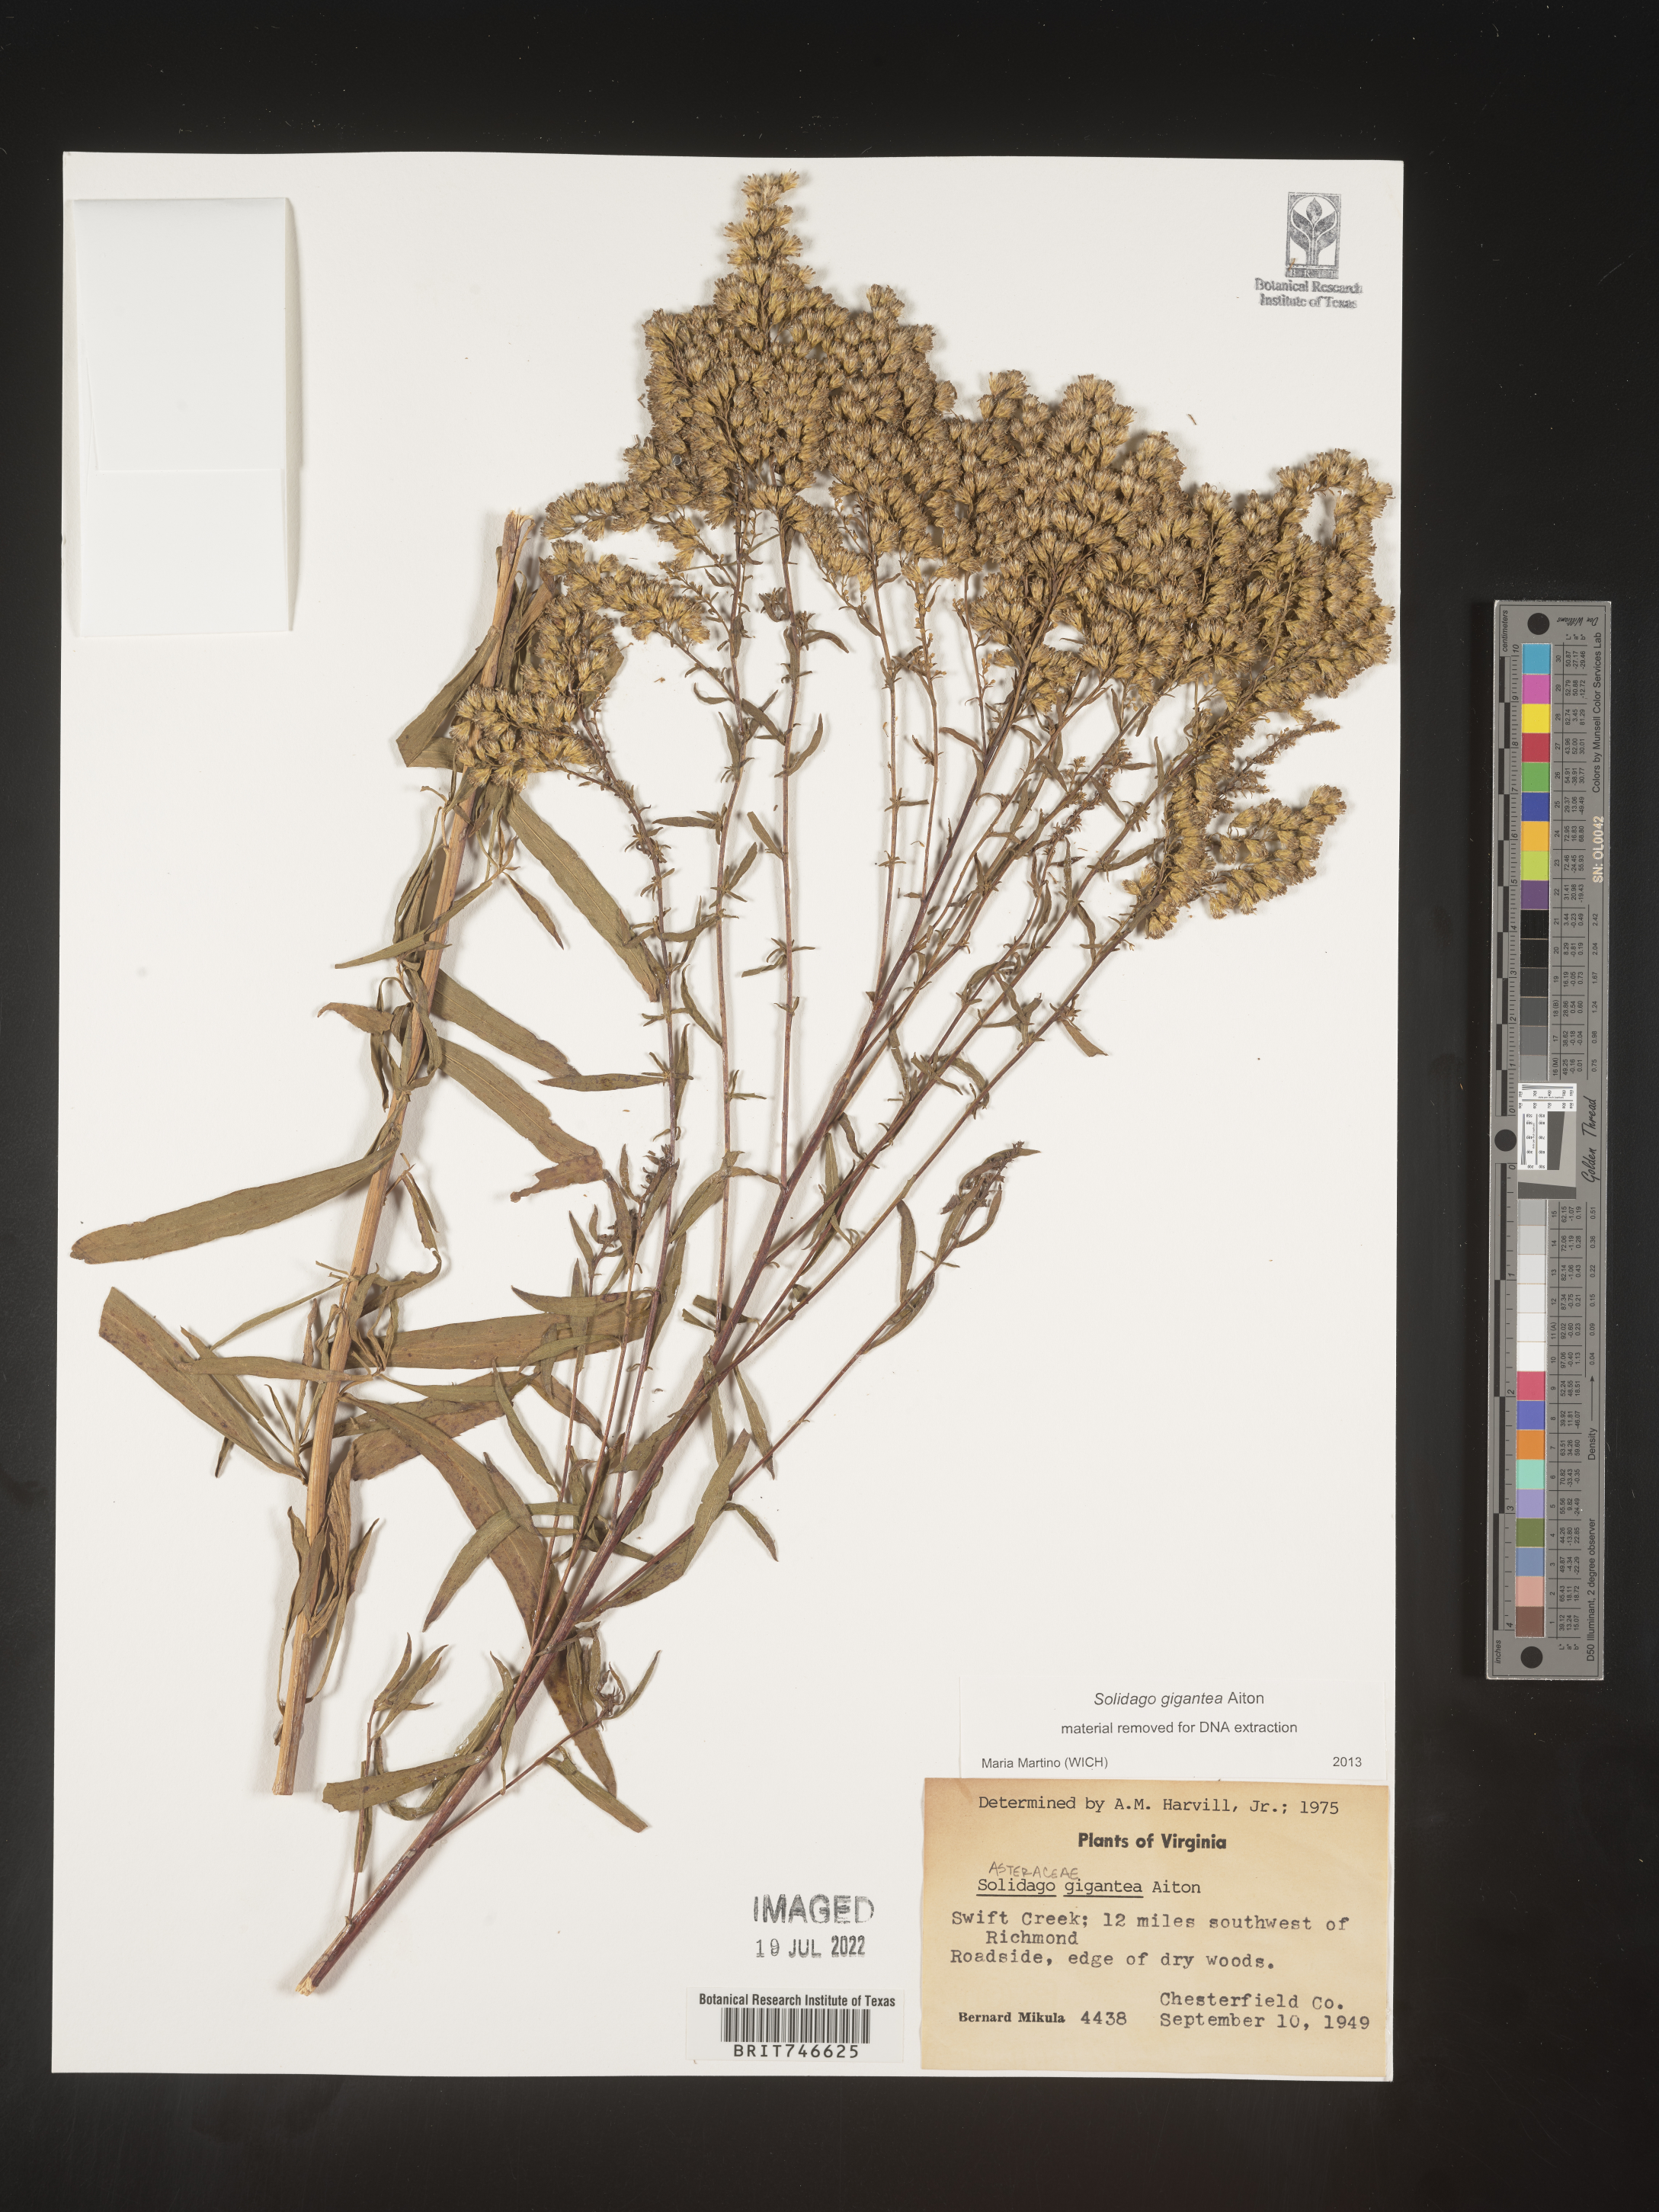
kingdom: Plantae
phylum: Tracheophyta
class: Magnoliopsida
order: Asterales
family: Asteraceae
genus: Solidago
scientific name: Solidago gigantea
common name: Giant goldenrod
